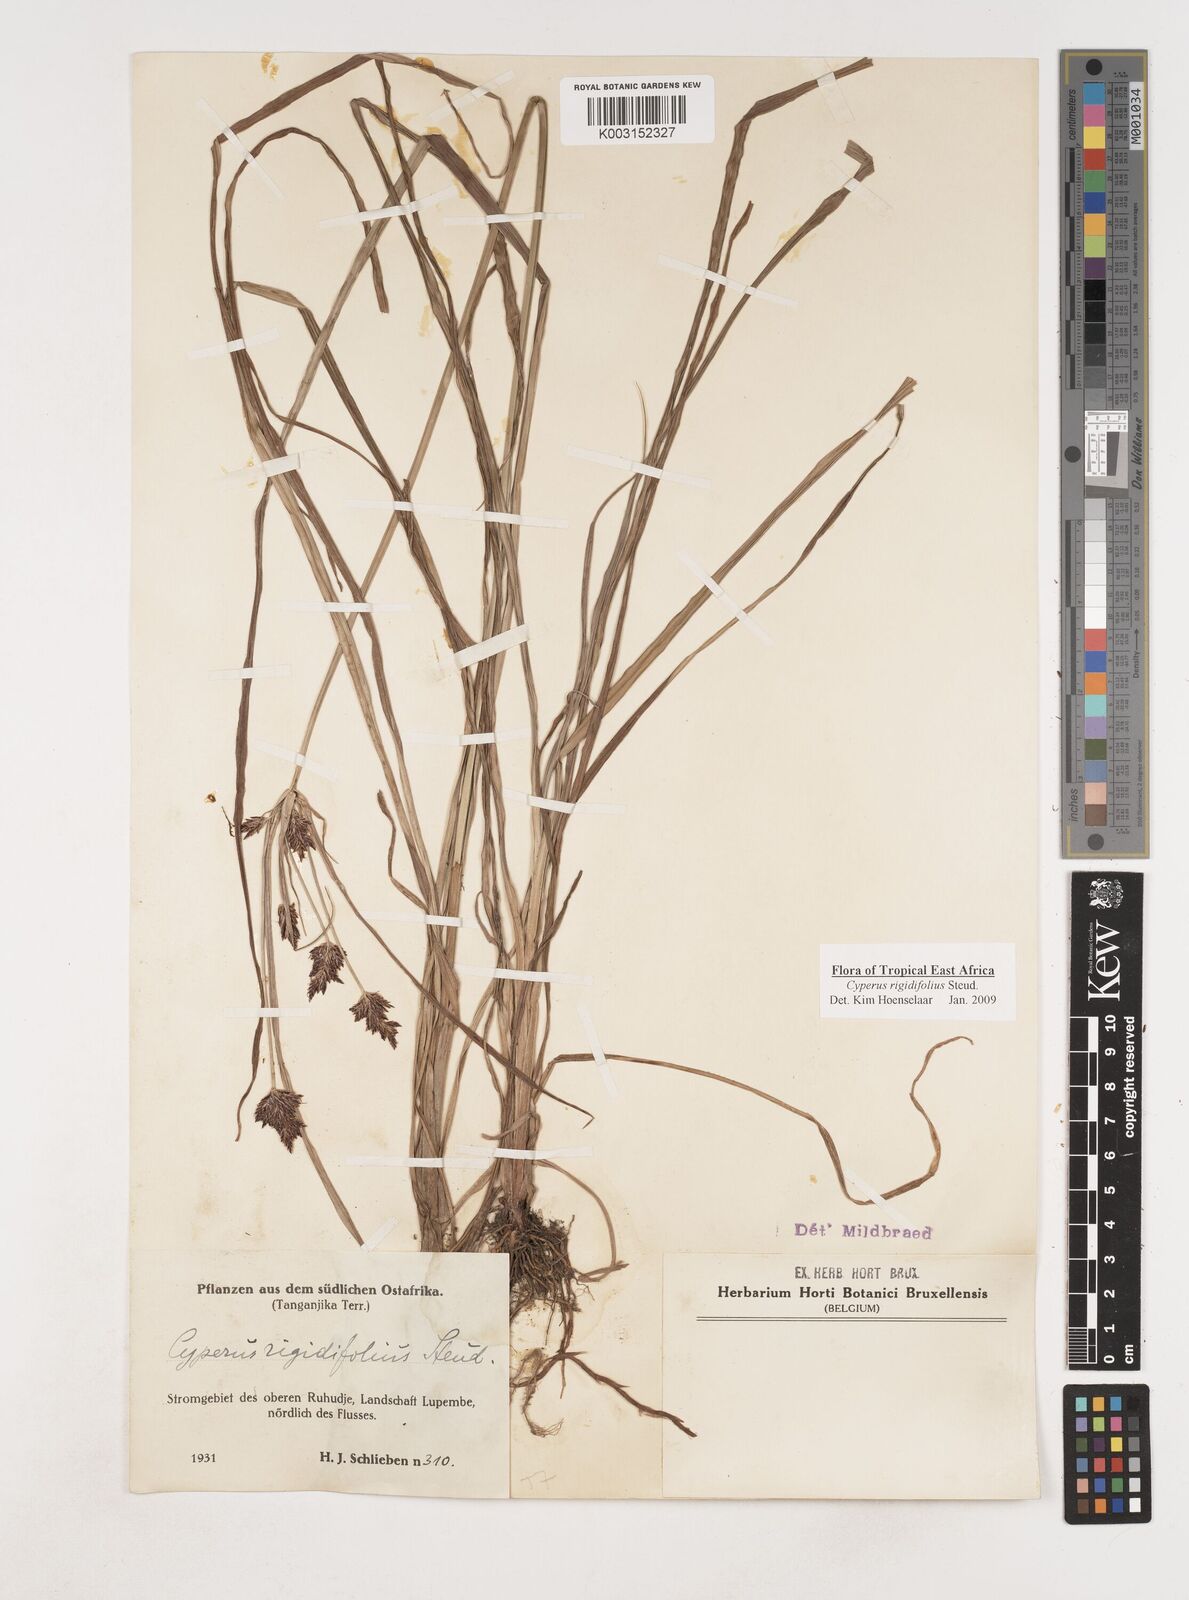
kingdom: Plantae
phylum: Tracheophyta
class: Liliopsida
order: Poales
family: Cyperaceae
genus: Cyperus
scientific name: Cyperus rigidifolius
